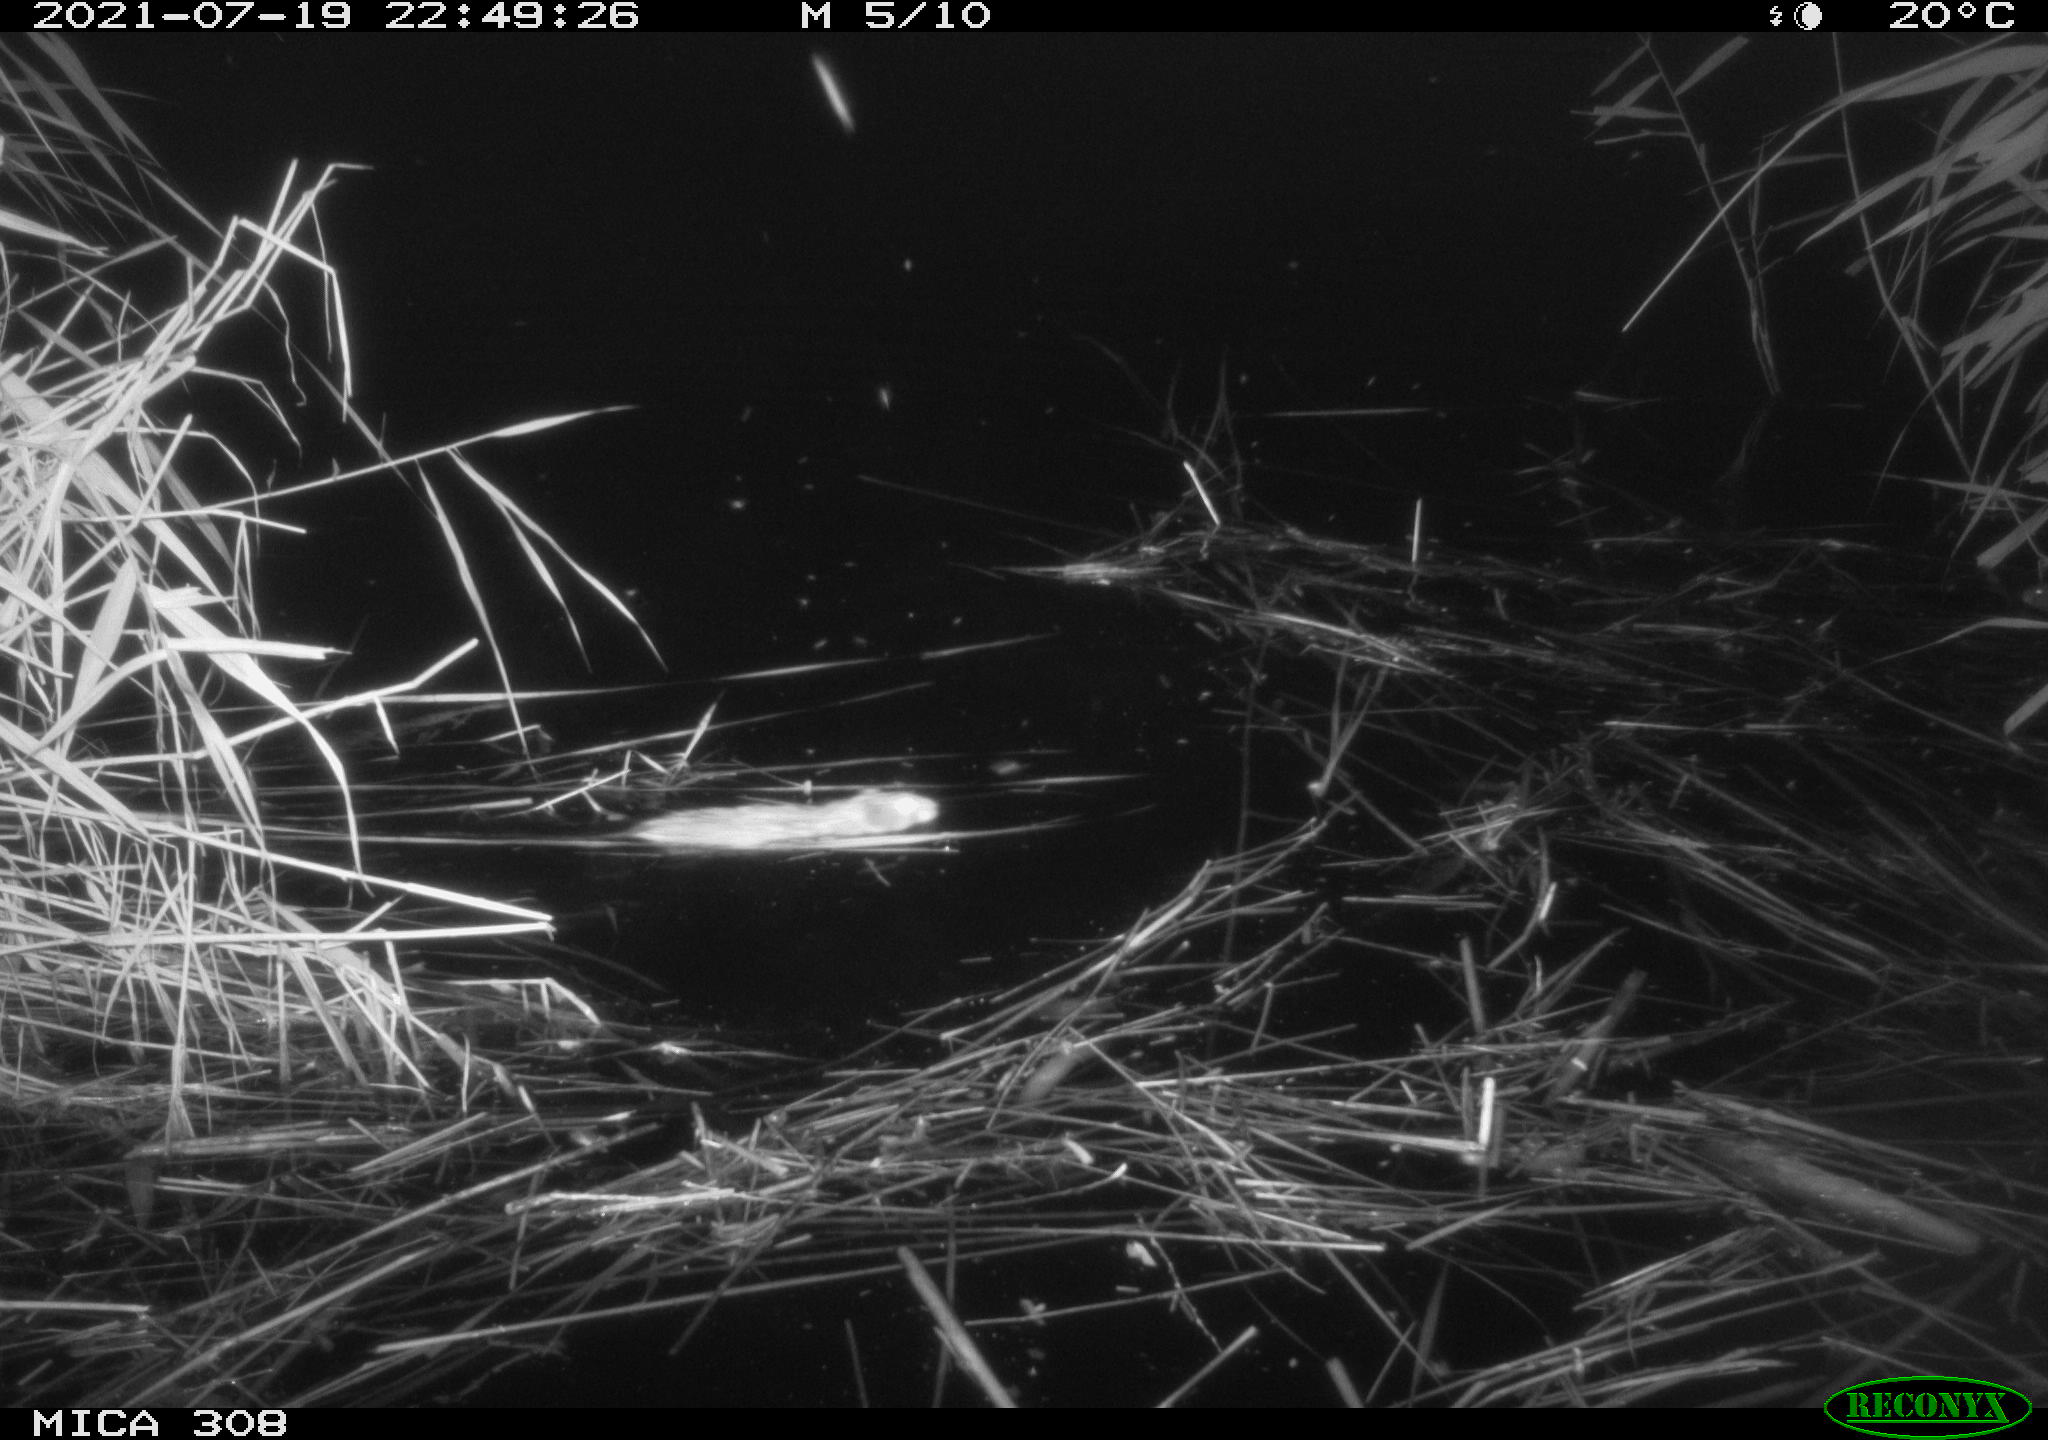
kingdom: Animalia
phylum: Chordata
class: Aves
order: Anseriformes
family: Anatidae
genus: Anas
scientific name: Anas platyrhynchos
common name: Mallard
